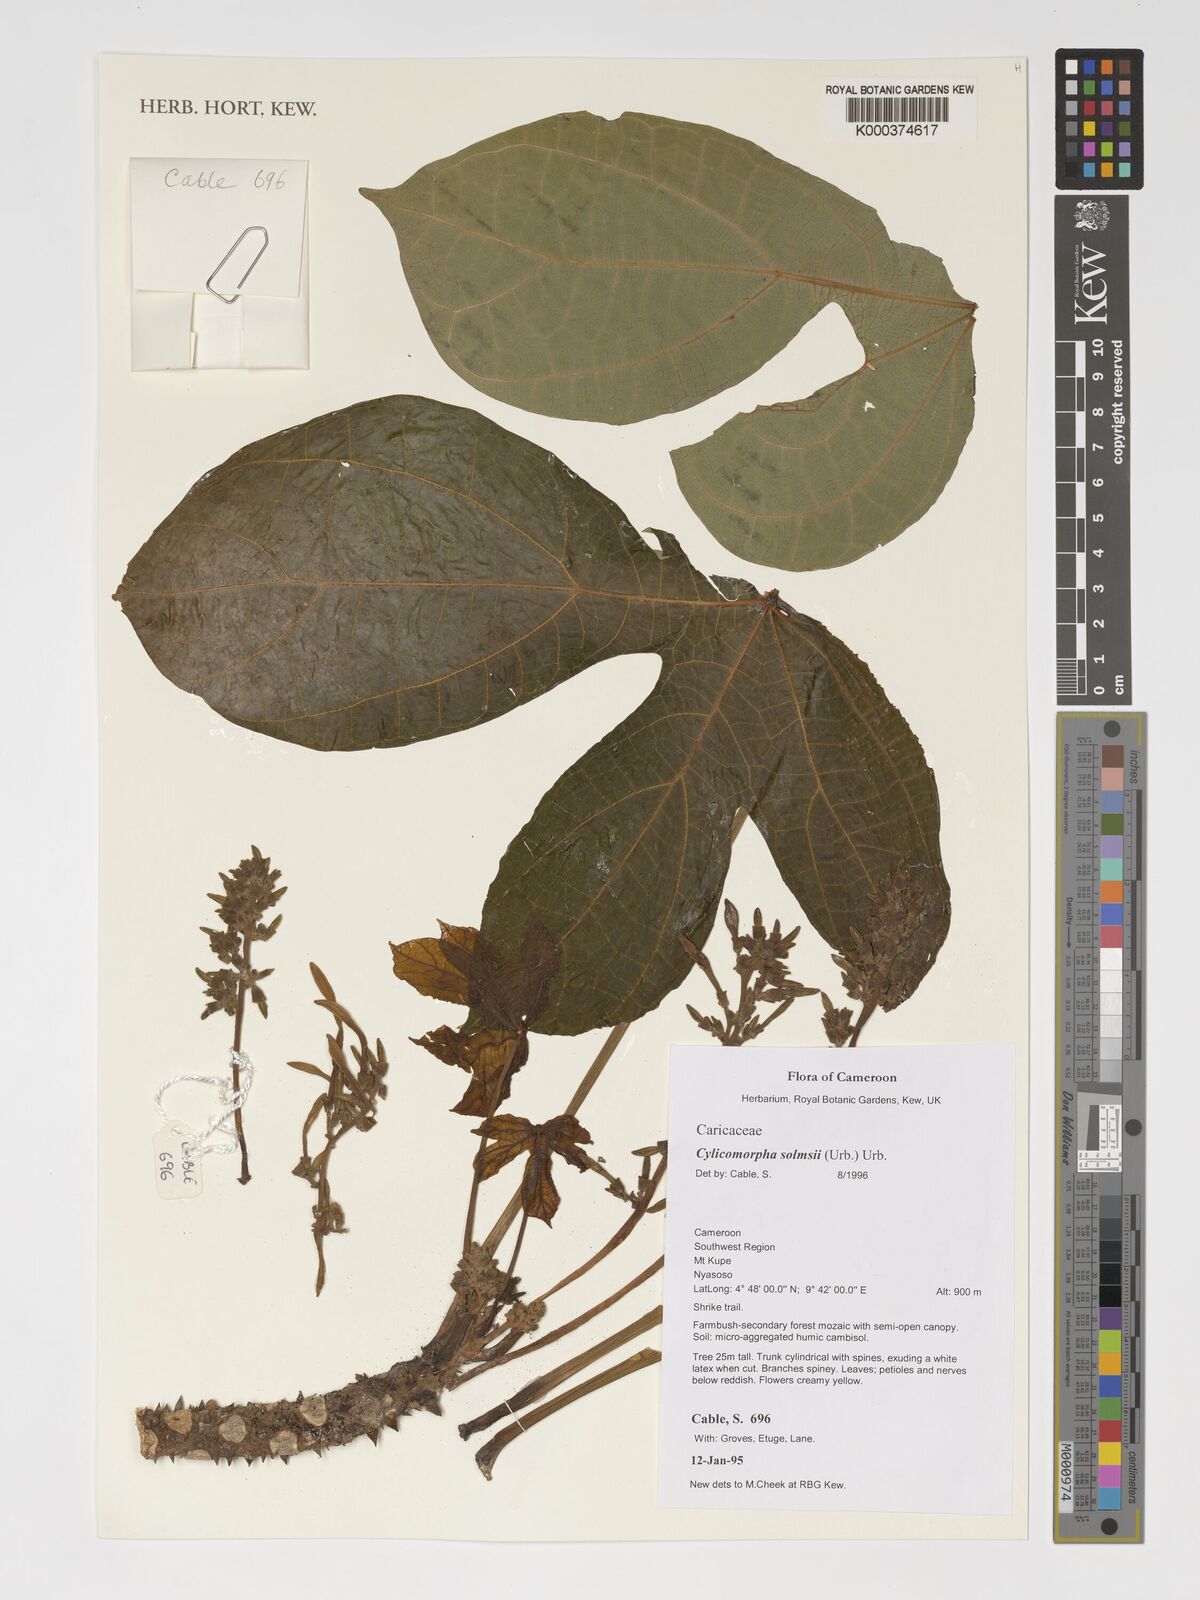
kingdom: Plantae
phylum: Tracheophyta
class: Magnoliopsida
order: Brassicales
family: Caricaceae
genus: Cylicomorpha
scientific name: Cylicomorpha solmsii
